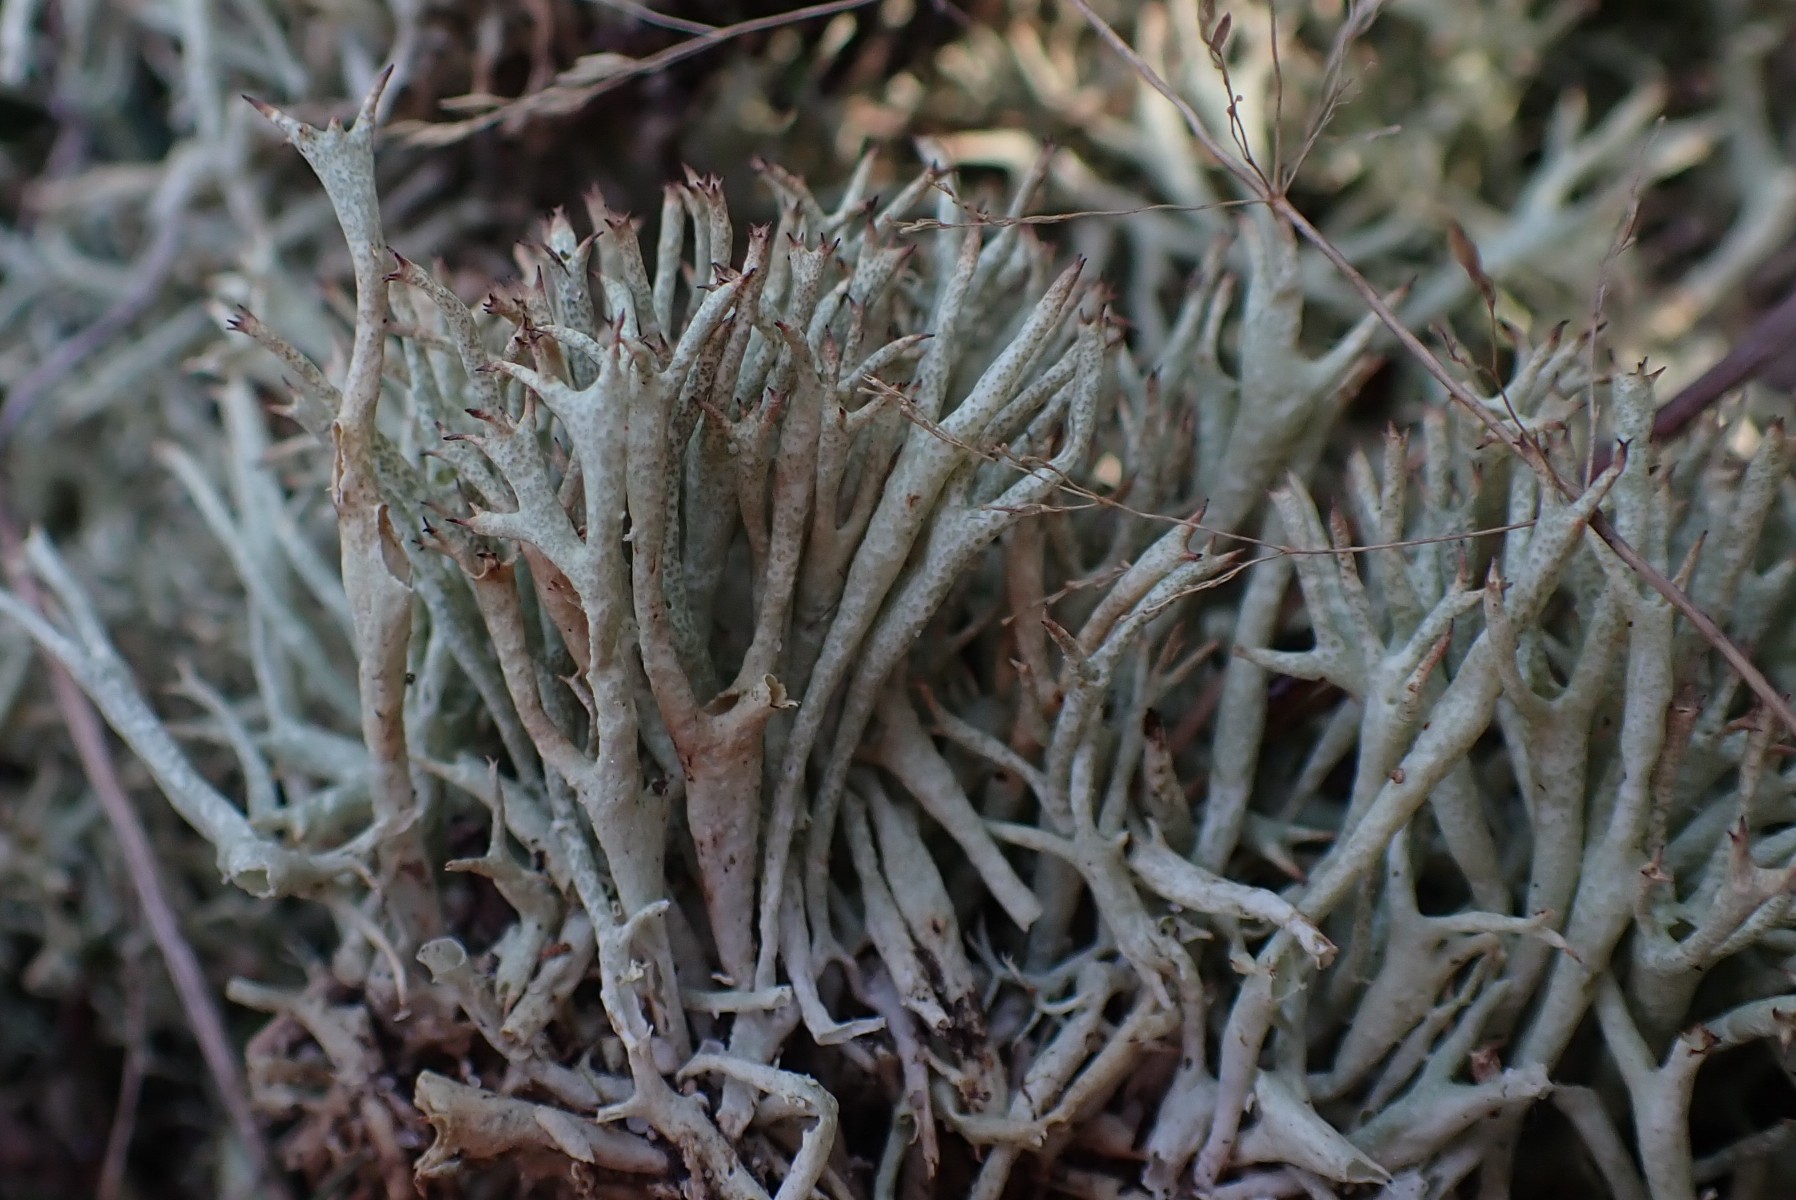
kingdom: Fungi
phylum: Ascomycota
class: Lecanoromycetes
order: Lecanorales
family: Cladoniaceae
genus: Cladonia
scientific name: Cladonia uncialis
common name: pigget bægerlav
